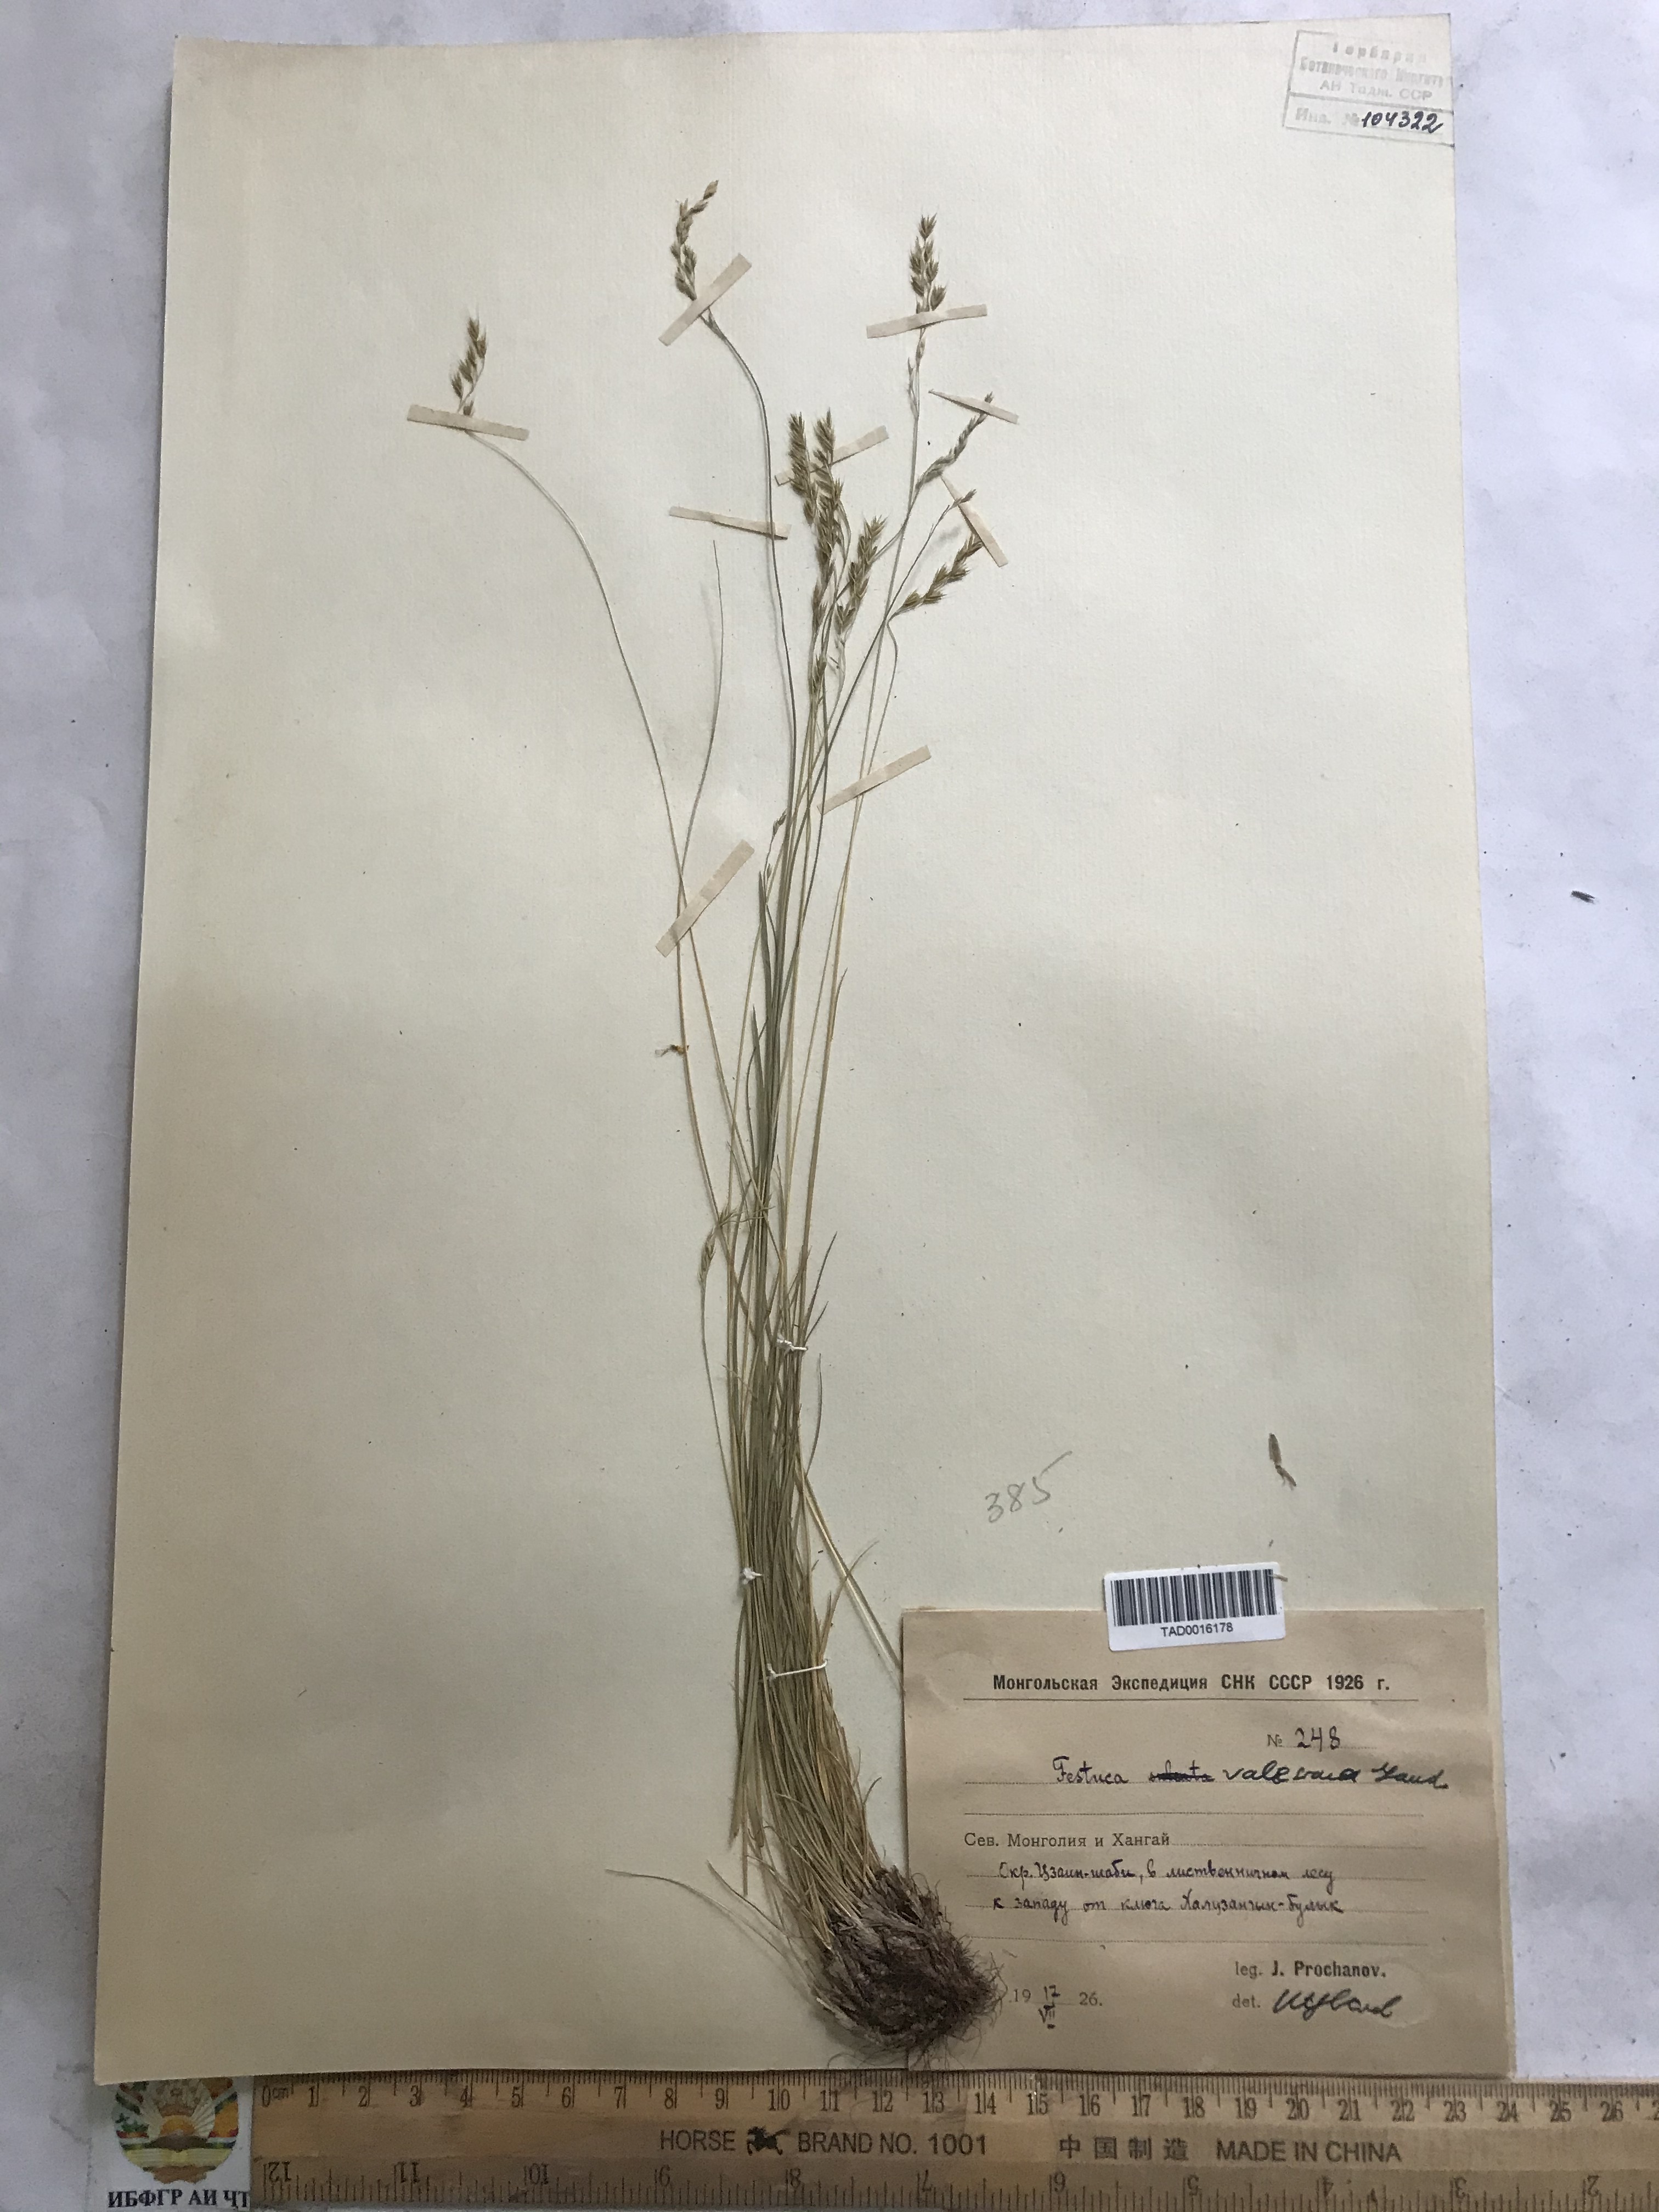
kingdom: Plantae
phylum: Tracheophyta
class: Liliopsida
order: Poales
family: Poaceae
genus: Festuca
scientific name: Festuca valesiaca
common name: Volga fescue
